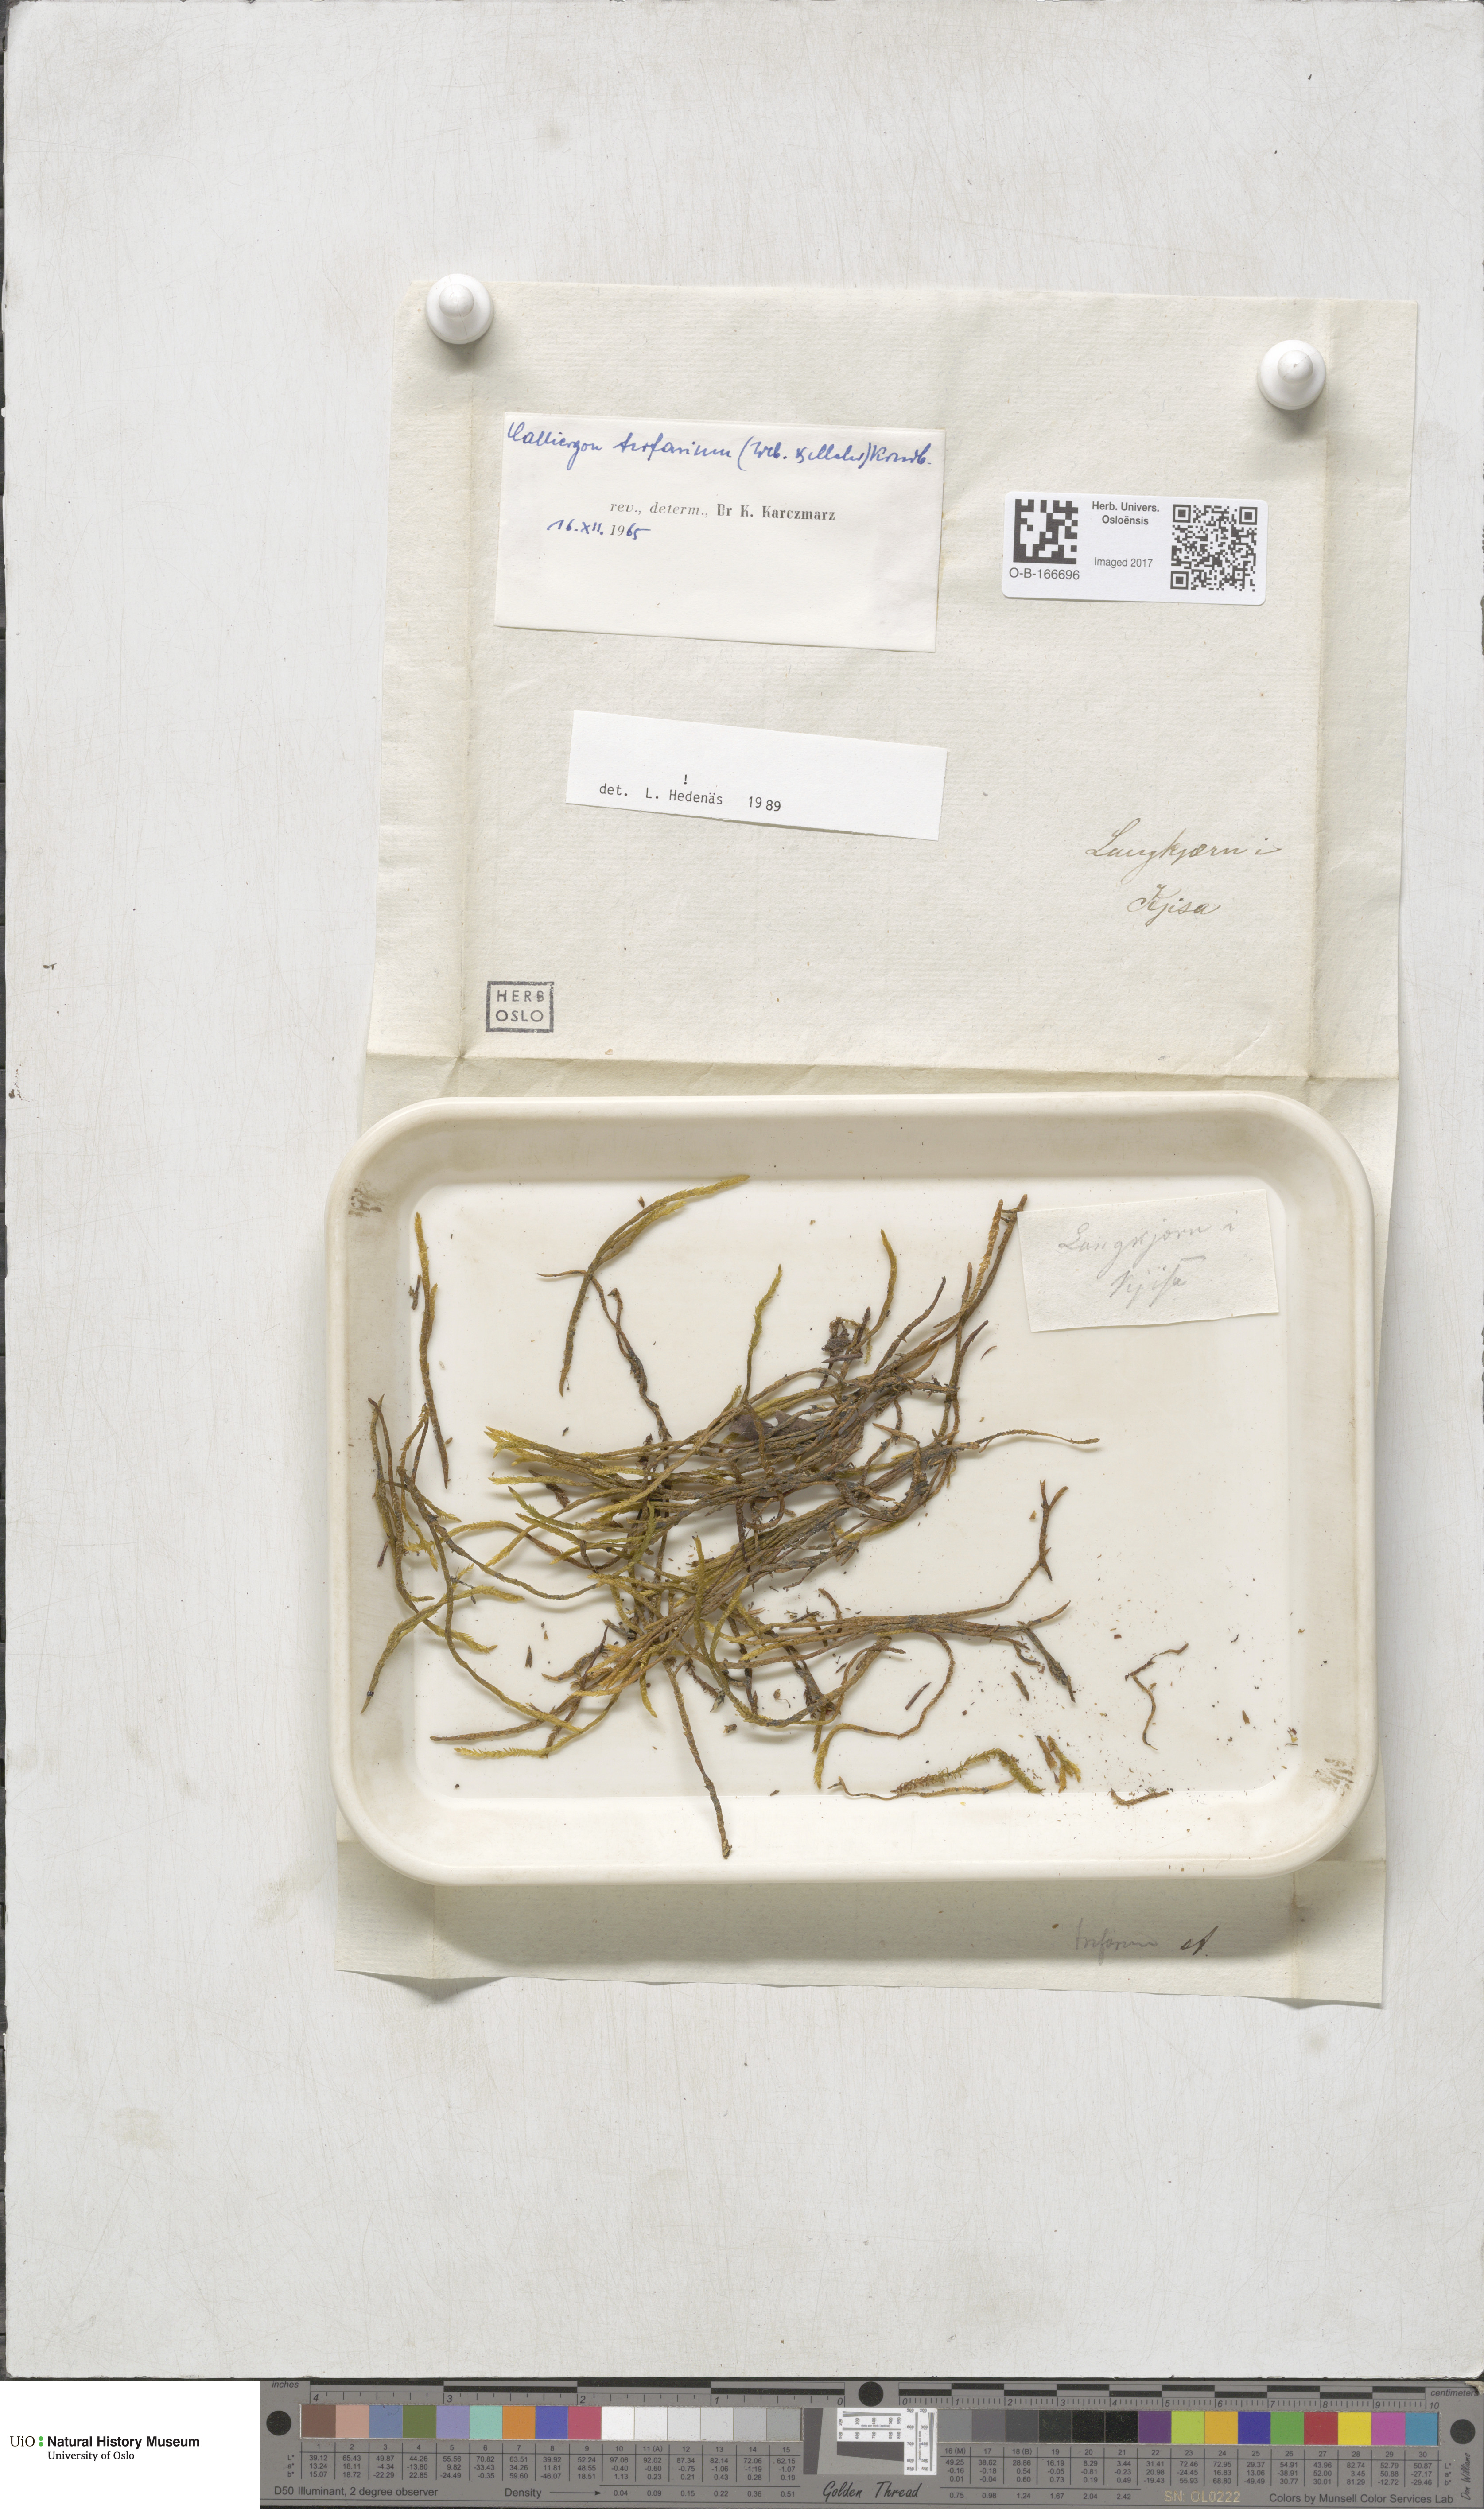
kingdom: Plantae
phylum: Bryophyta
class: Bryopsida
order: Hypnales
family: Amblystegiaceae
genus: Drepanocladus
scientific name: Drepanocladus trifarius
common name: Calliergon moss
